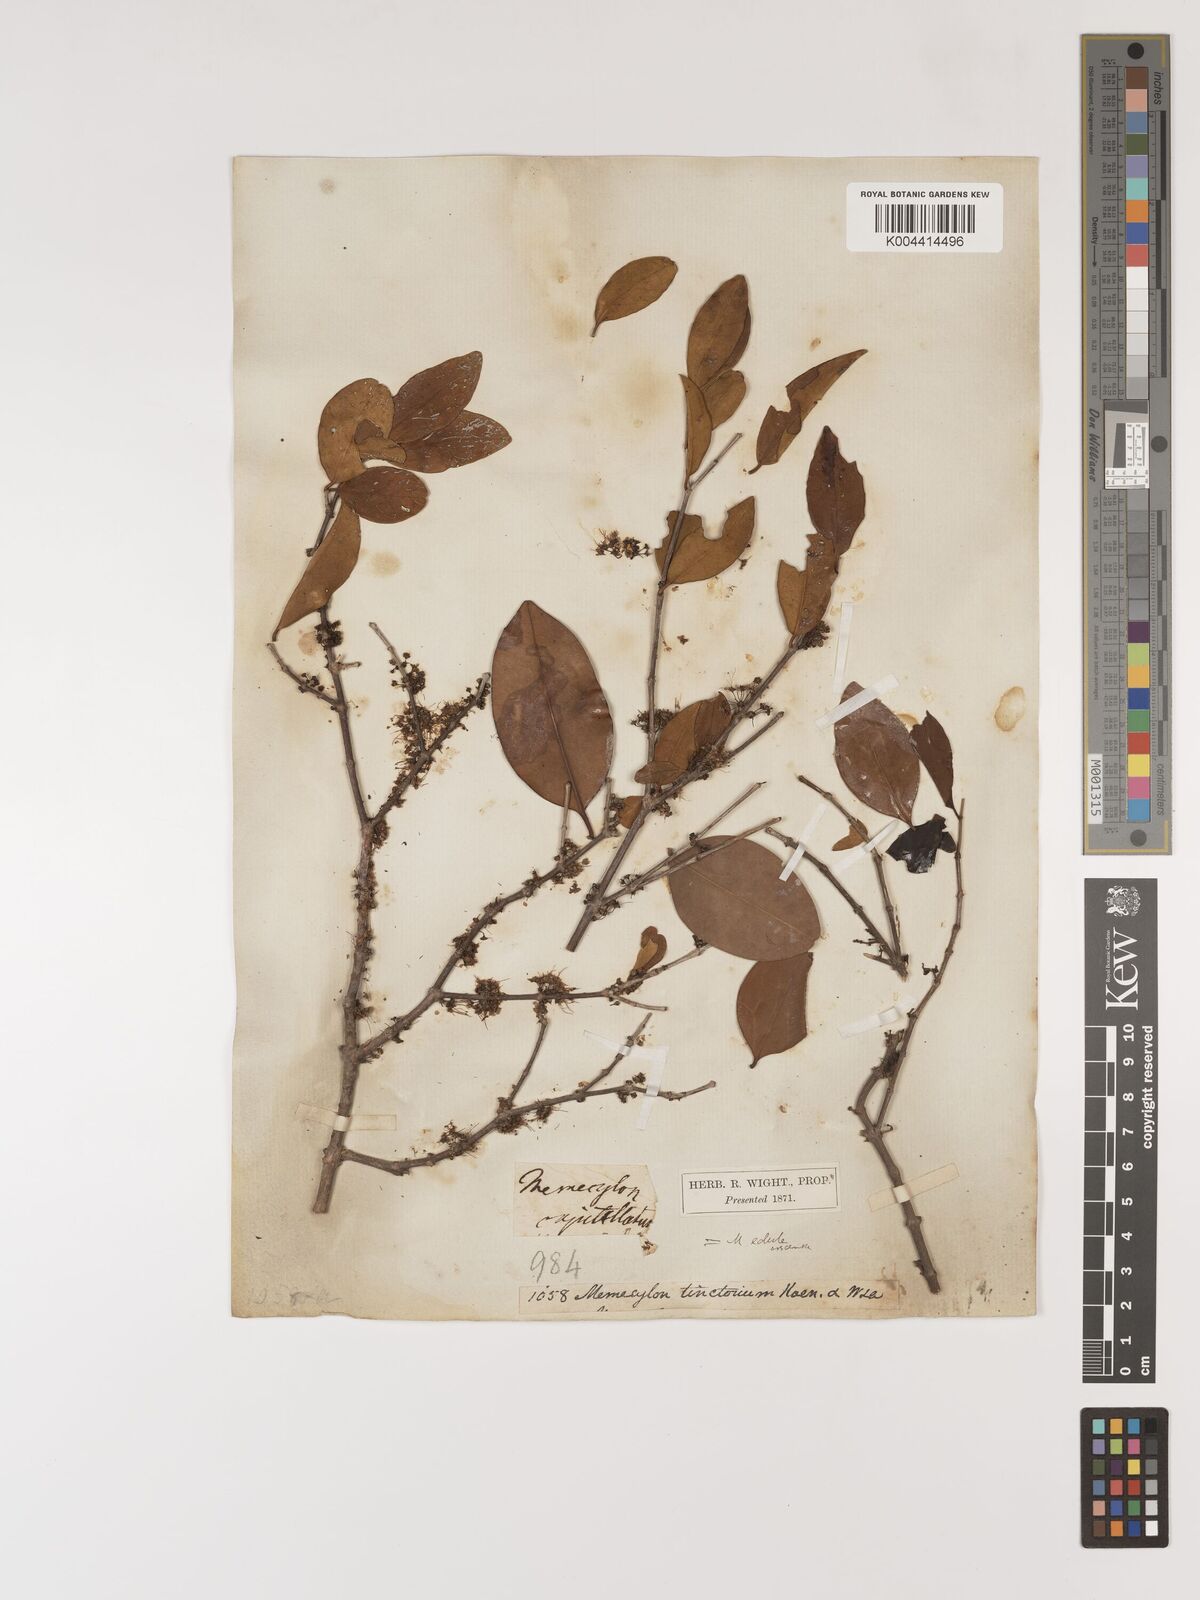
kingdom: Plantae
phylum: Tracheophyta
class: Magnoliopsida
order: Myrtales
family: Melastomataceae
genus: Memecylon
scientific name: Memecylon coeruleum
